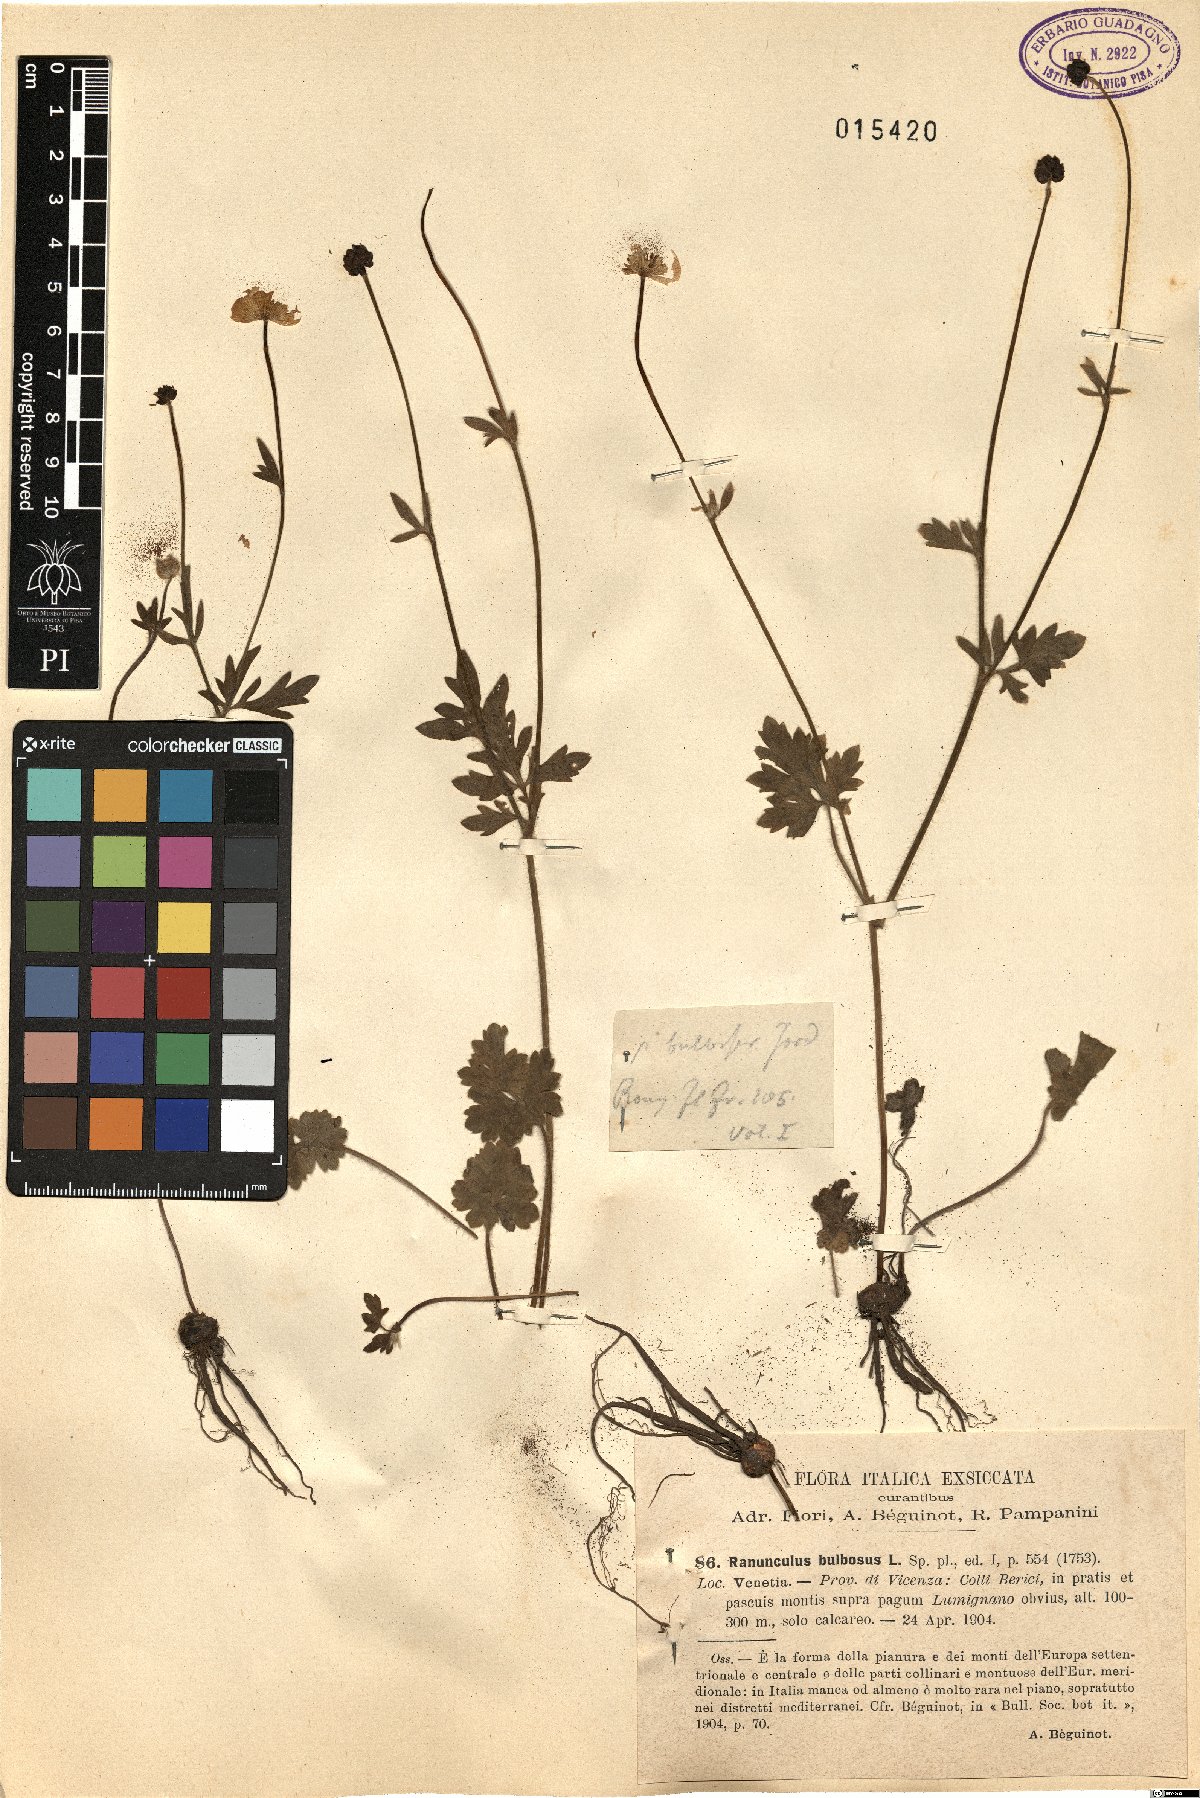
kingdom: Plantae
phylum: Tracheophyta
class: Magnoliopsida
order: Ranunculales
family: Ranunculaceae
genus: Ranunculus
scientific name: Ranunculus bulbosus
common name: Bulbous buttercup
